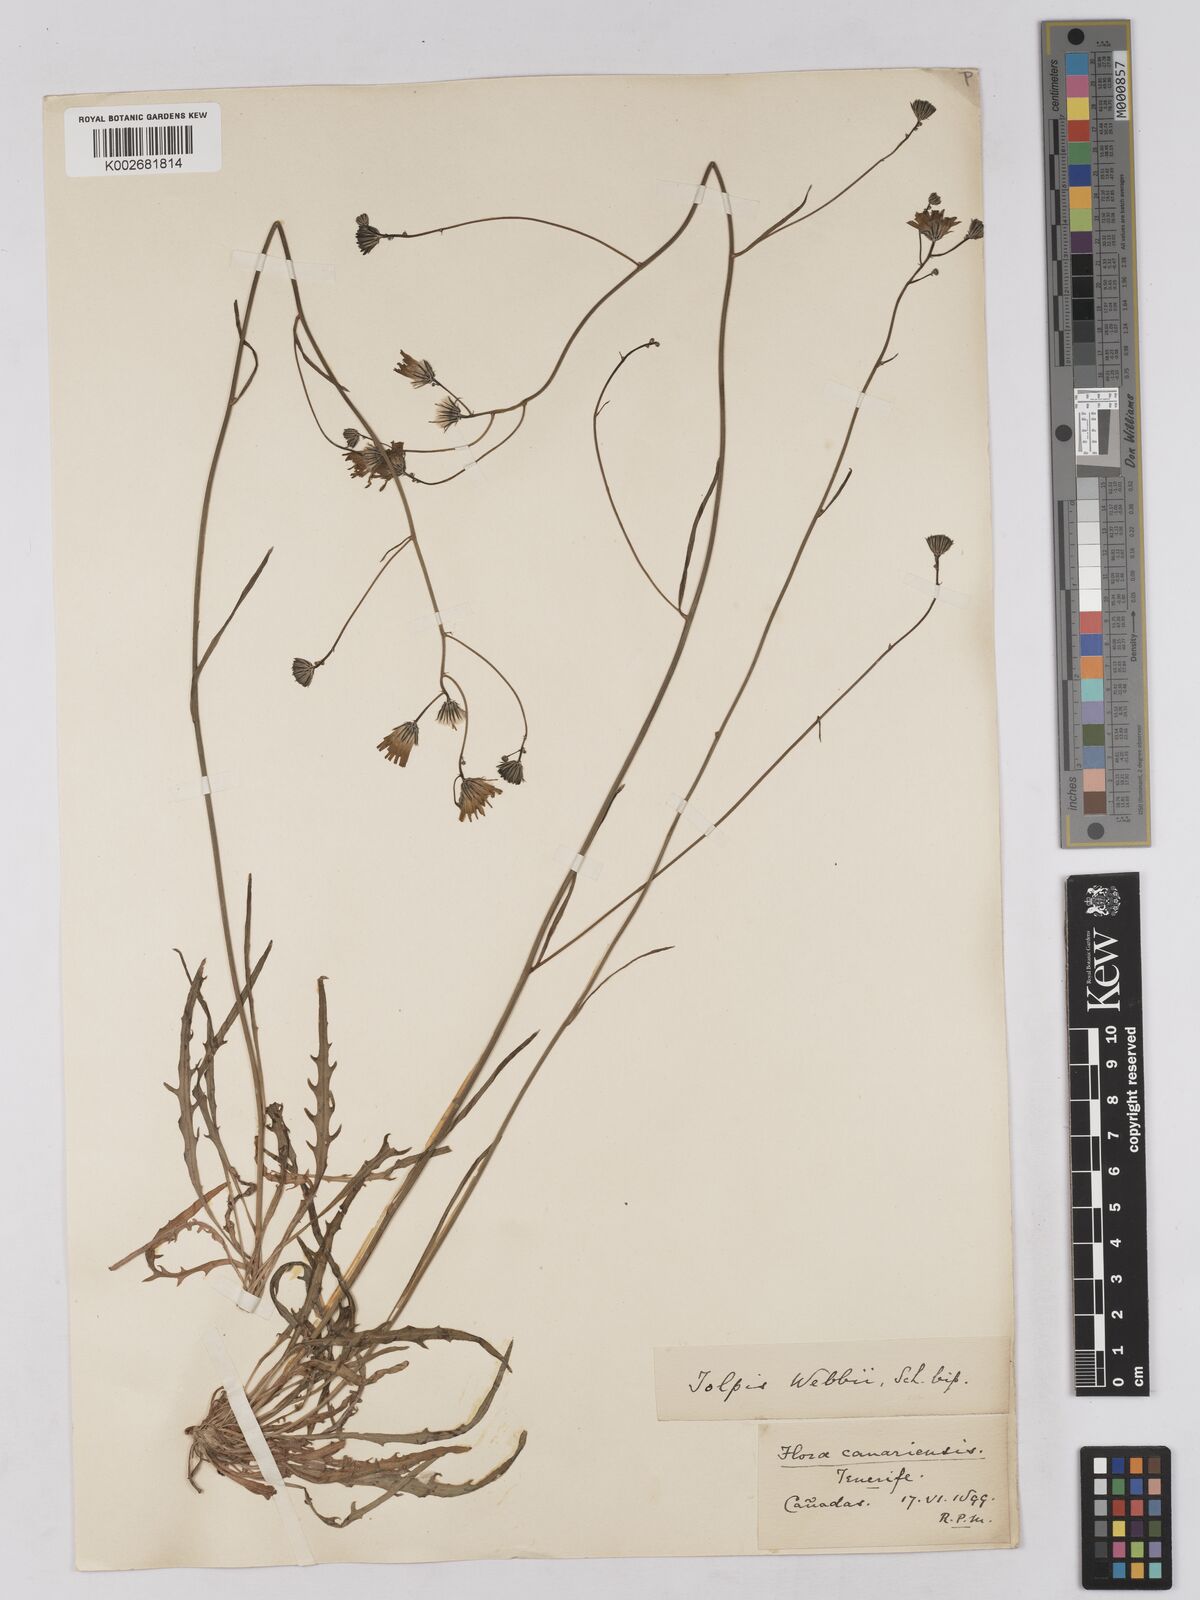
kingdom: Plantae
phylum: Tracheophyta
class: Magnoliopsida
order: Asterales
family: Asteraceae
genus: Tolpis
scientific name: Tolpis webbii
